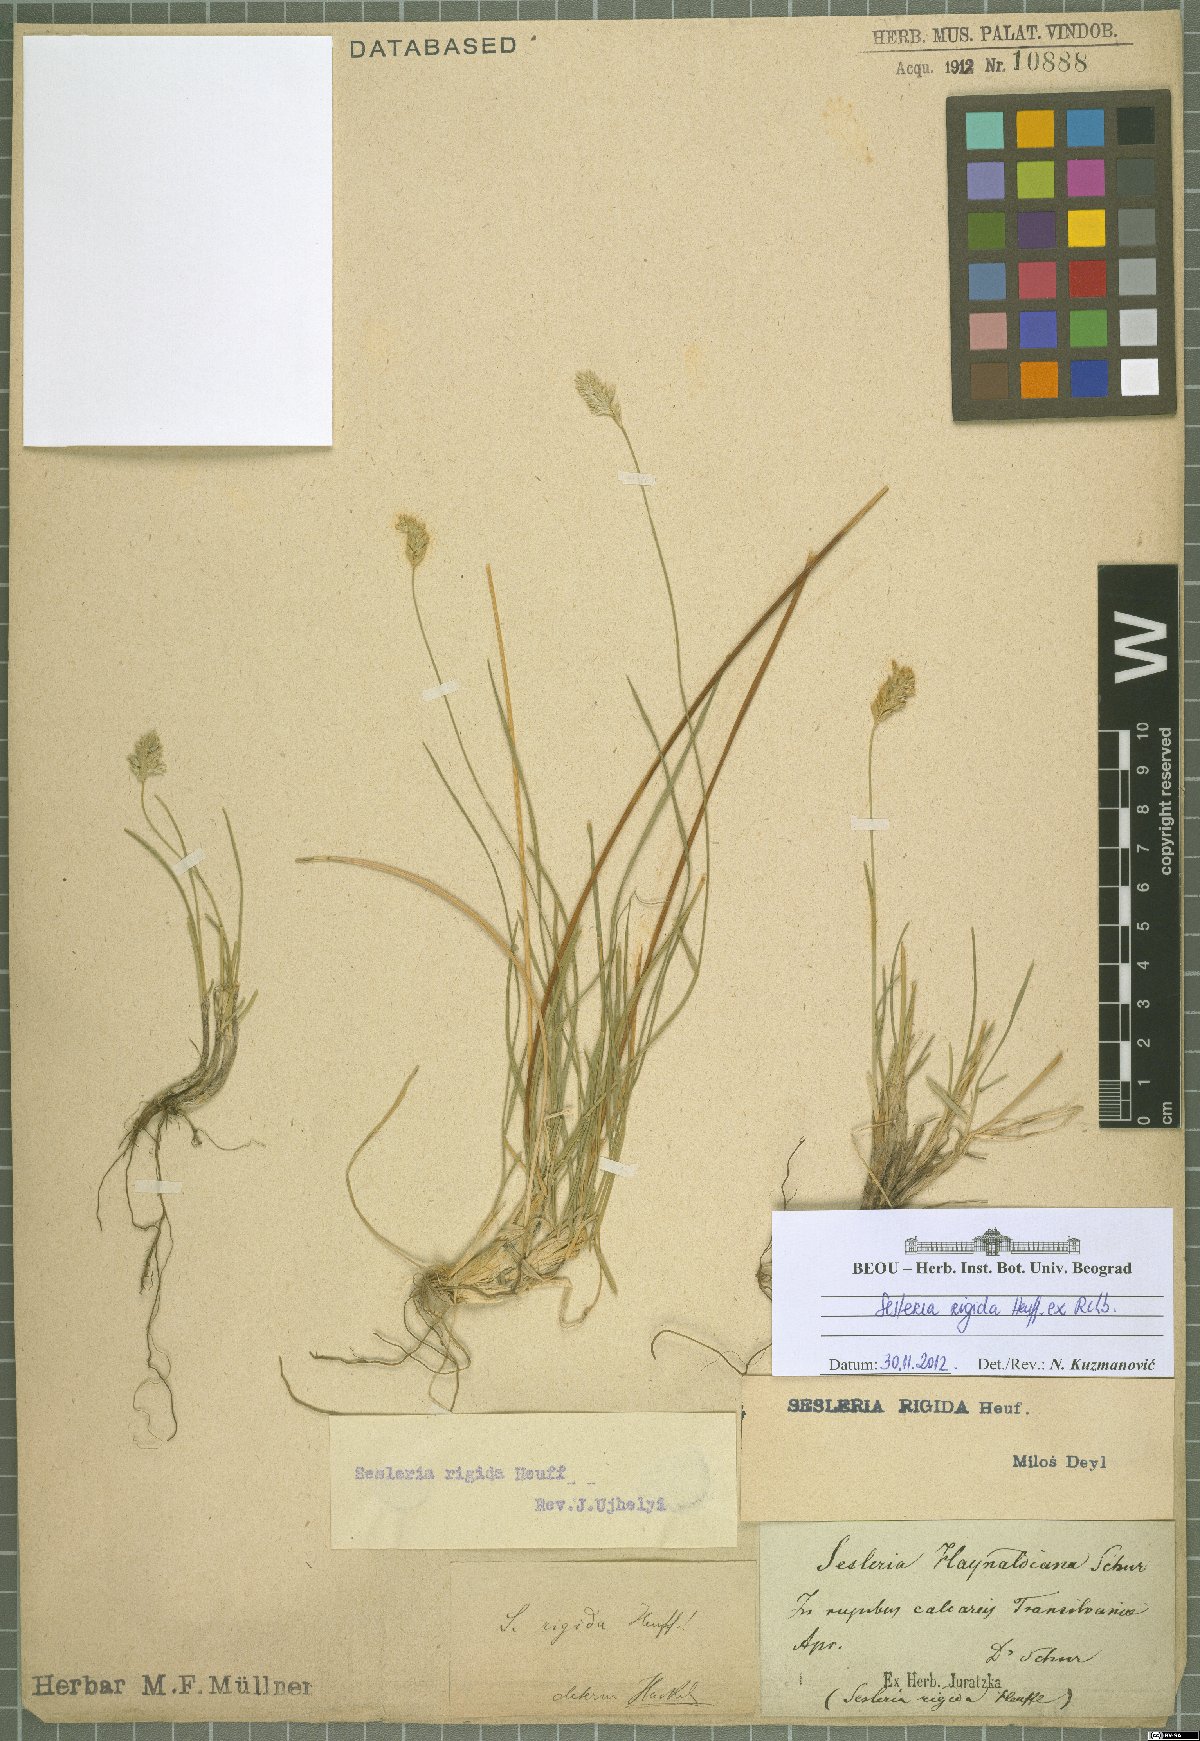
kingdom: Plantae
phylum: Tracheophyta
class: Liliopsida
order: Poales
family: Poaceae
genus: Sesleria
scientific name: Sesleria rigida
